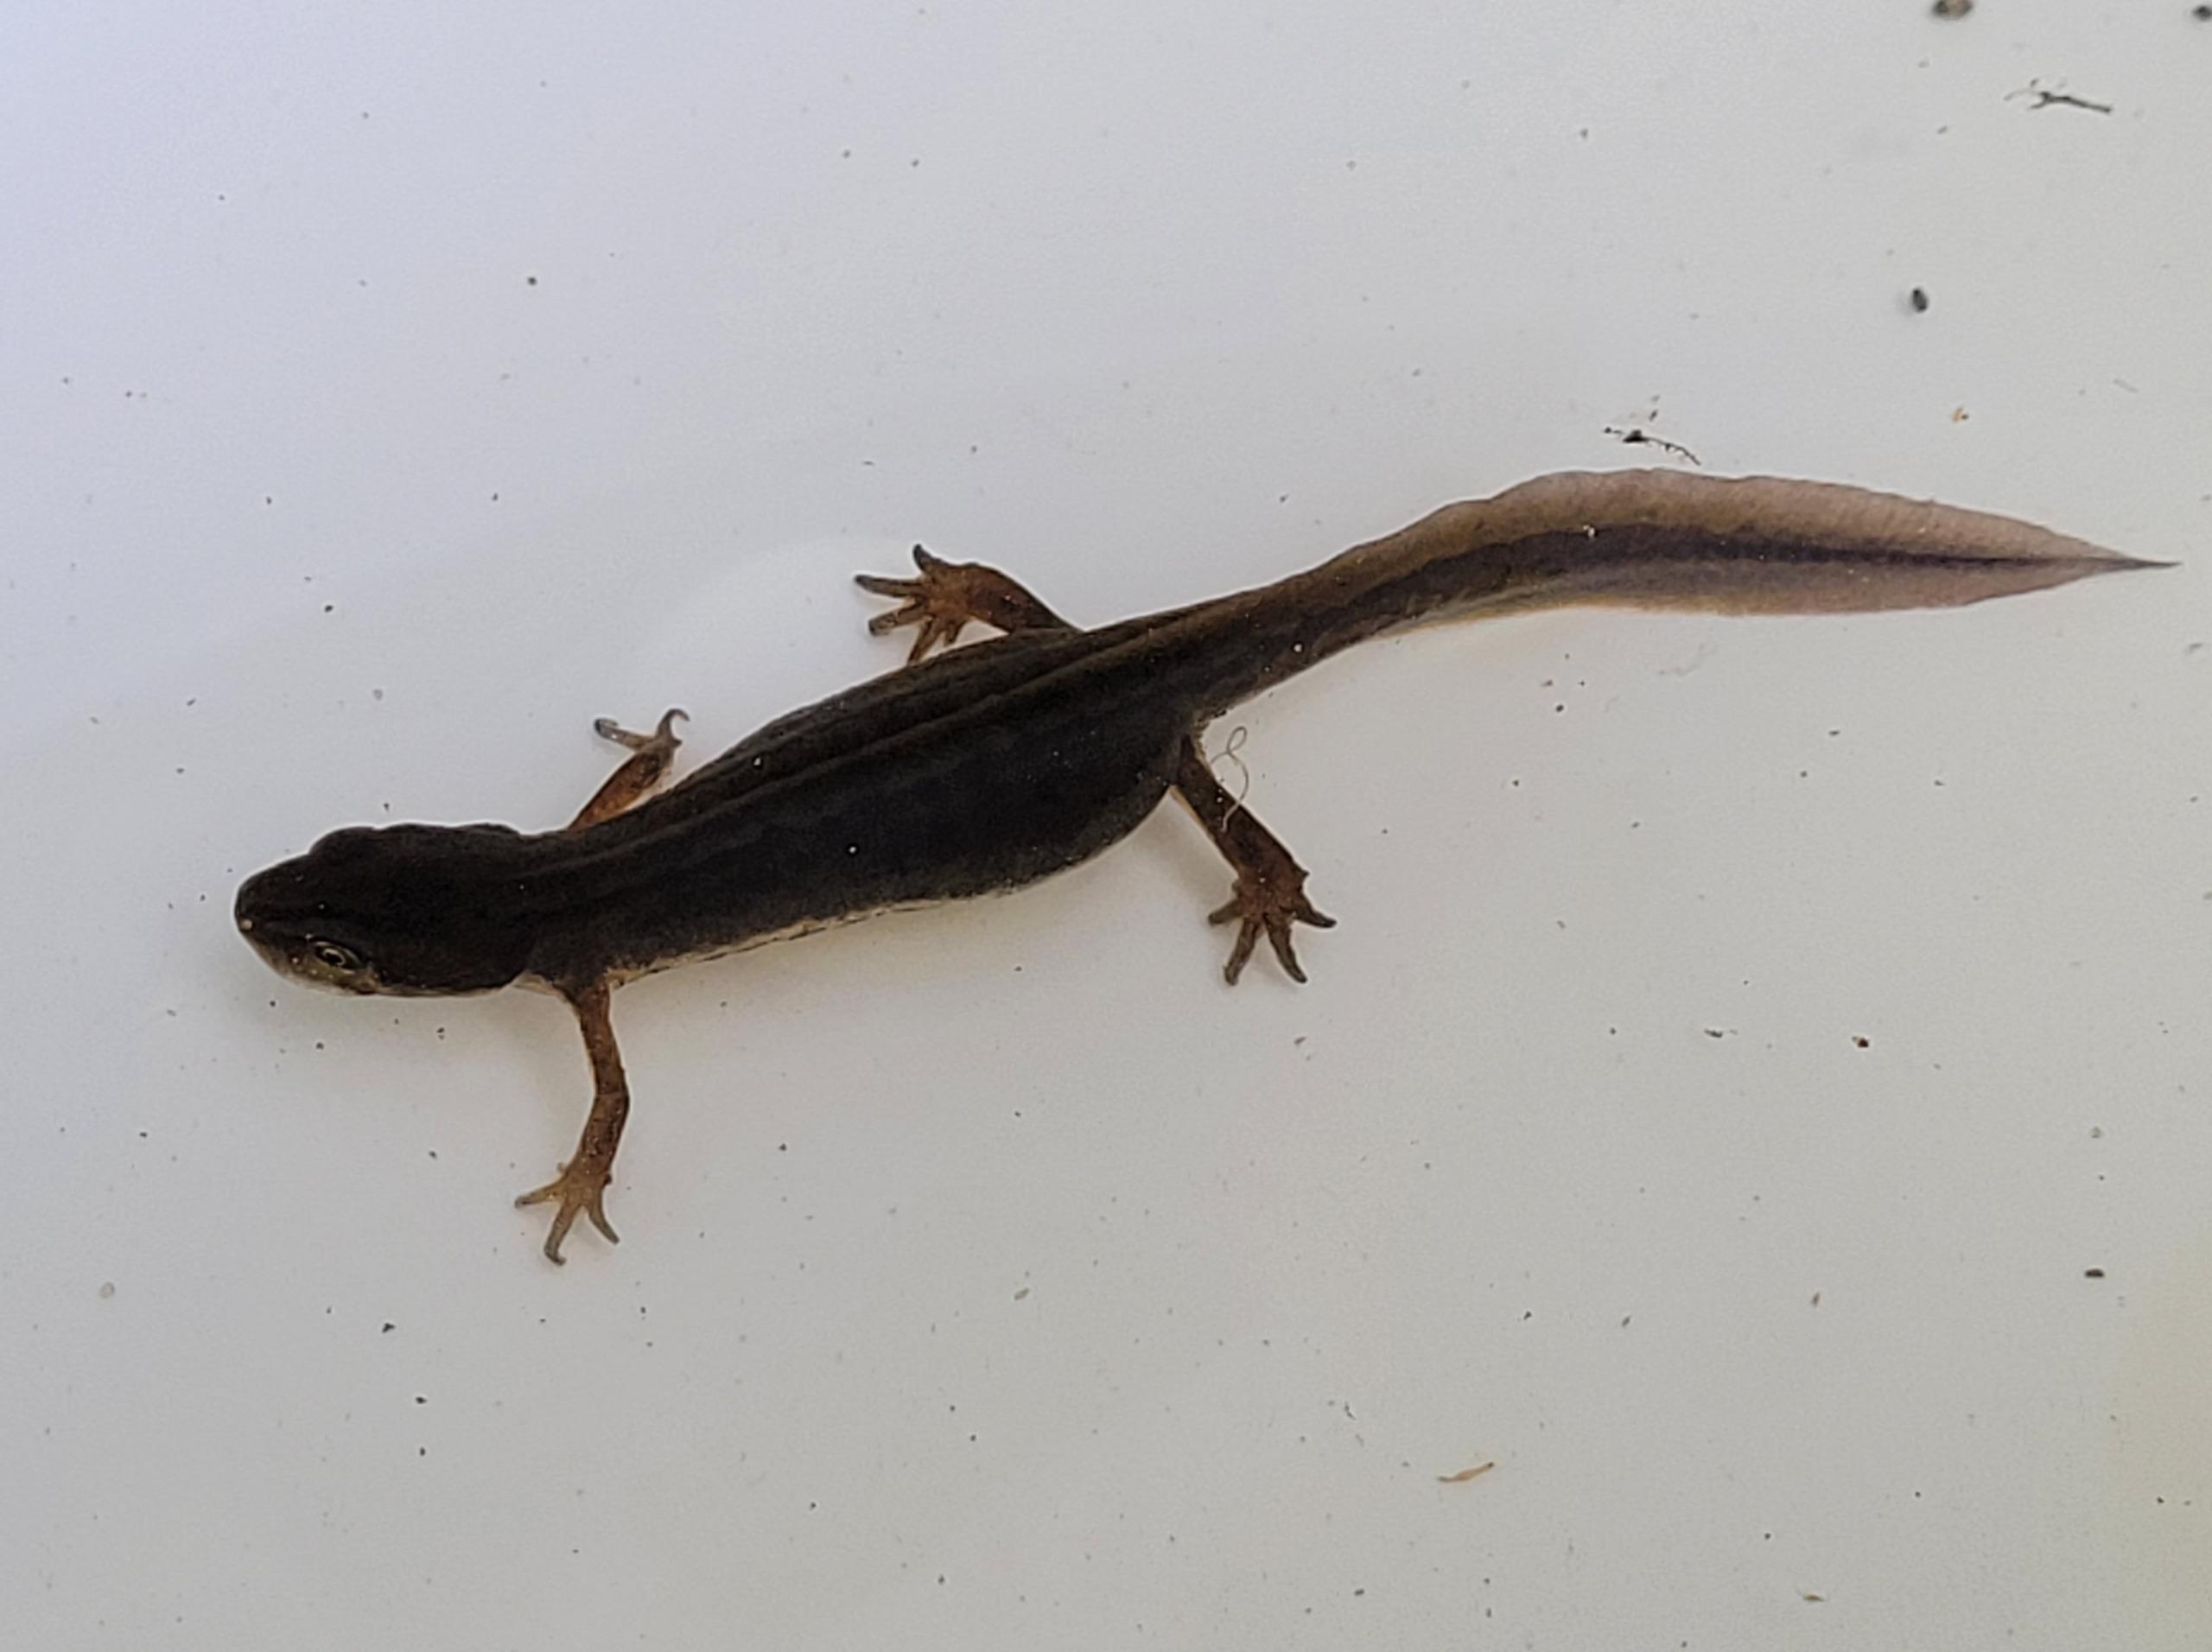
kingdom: Animalia
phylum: Chordata
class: Amphibia
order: Caudata
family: Salamandridae
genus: Lissotriton
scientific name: Lissotriton vulgaris
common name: Lille vandsalamander
